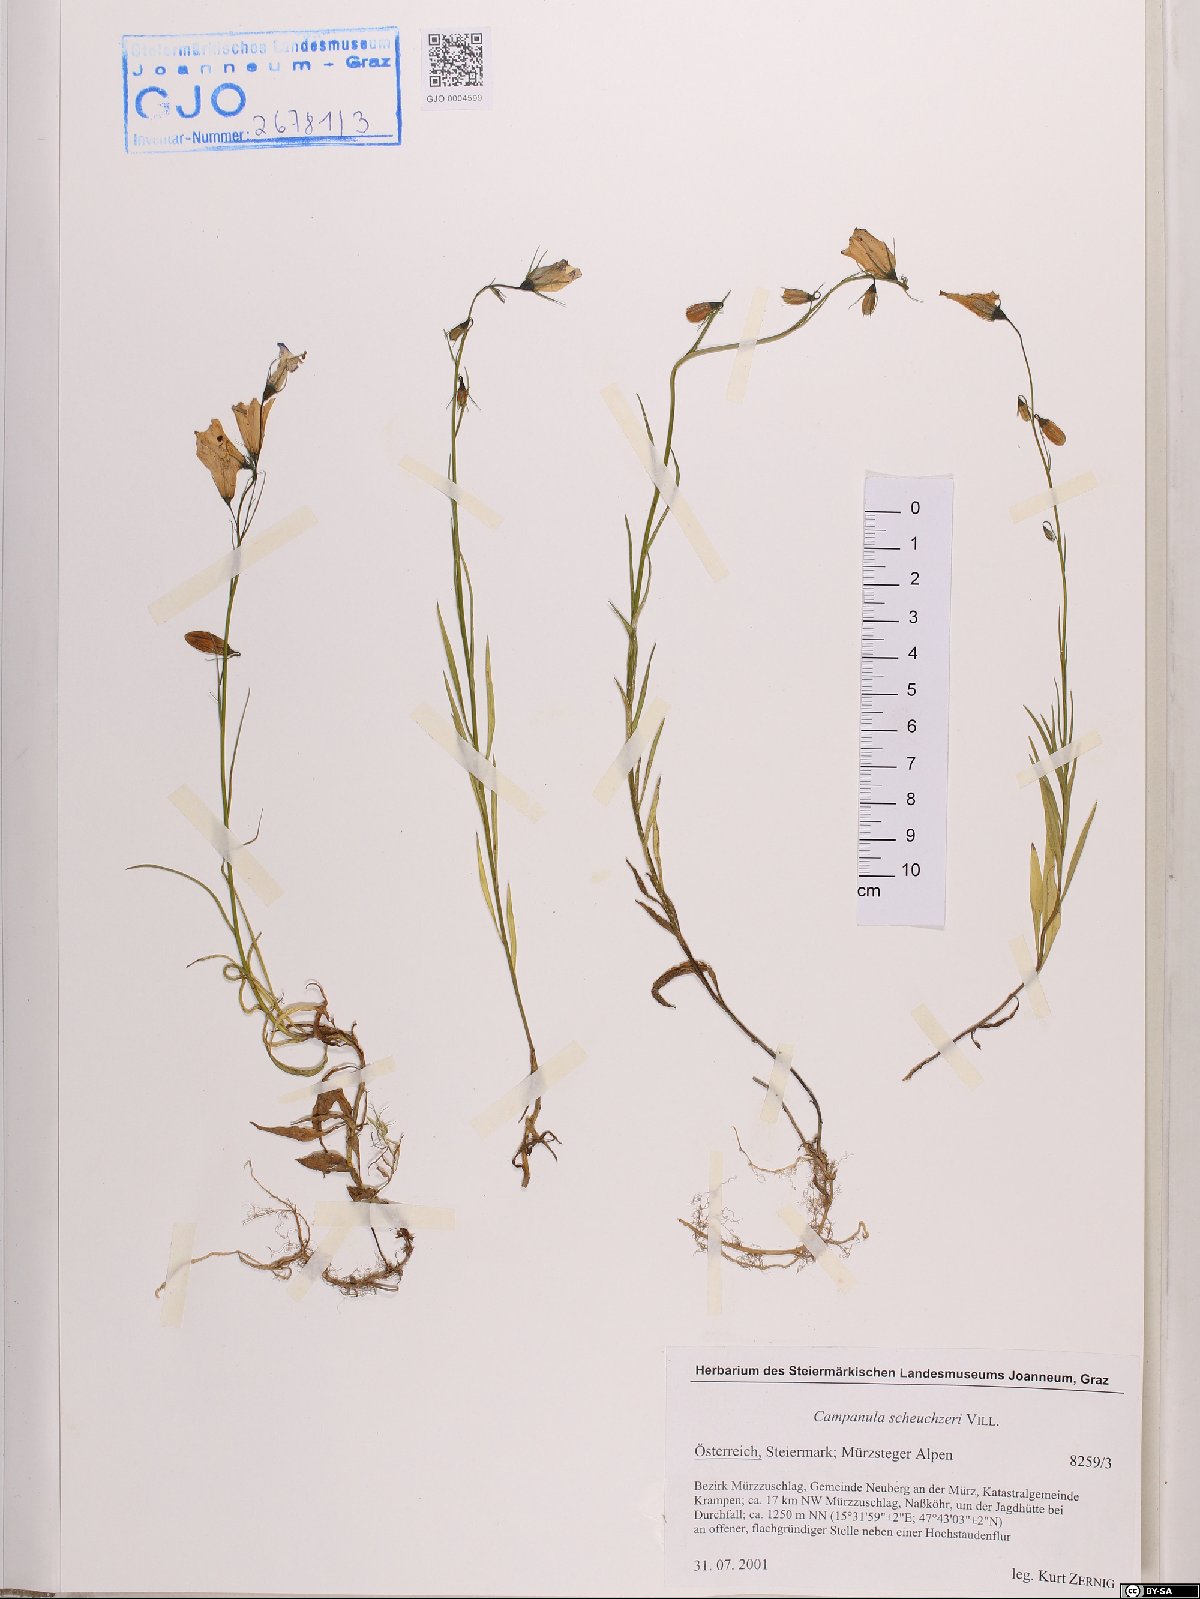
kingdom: Plantae
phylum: Tracheophyta
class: Magnoliopsida
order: Asterales
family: Campanulaceae
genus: Campanula
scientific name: Campanula scheuchzeri
